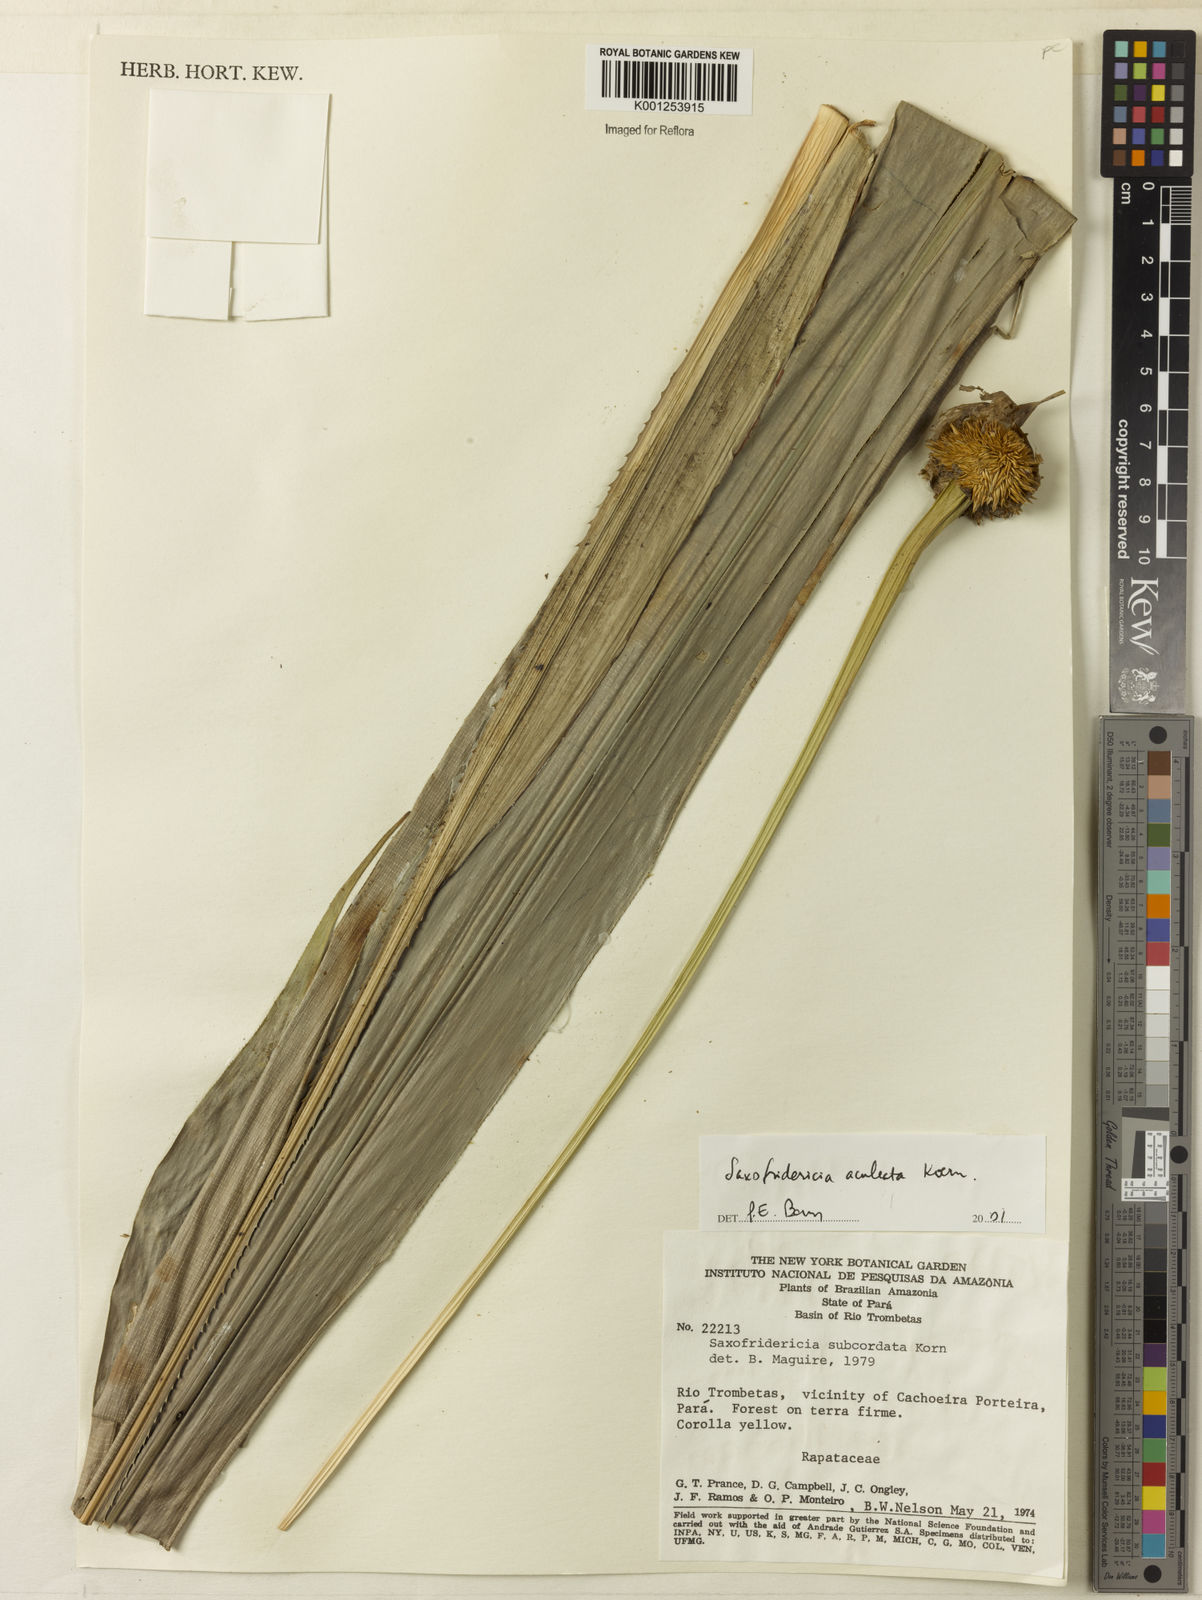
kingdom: Plantae
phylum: Tracheophyta
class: Liliopsida
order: Poales
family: Rapateaceae
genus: Saxofridericia
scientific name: Saxofridericia aculeata
